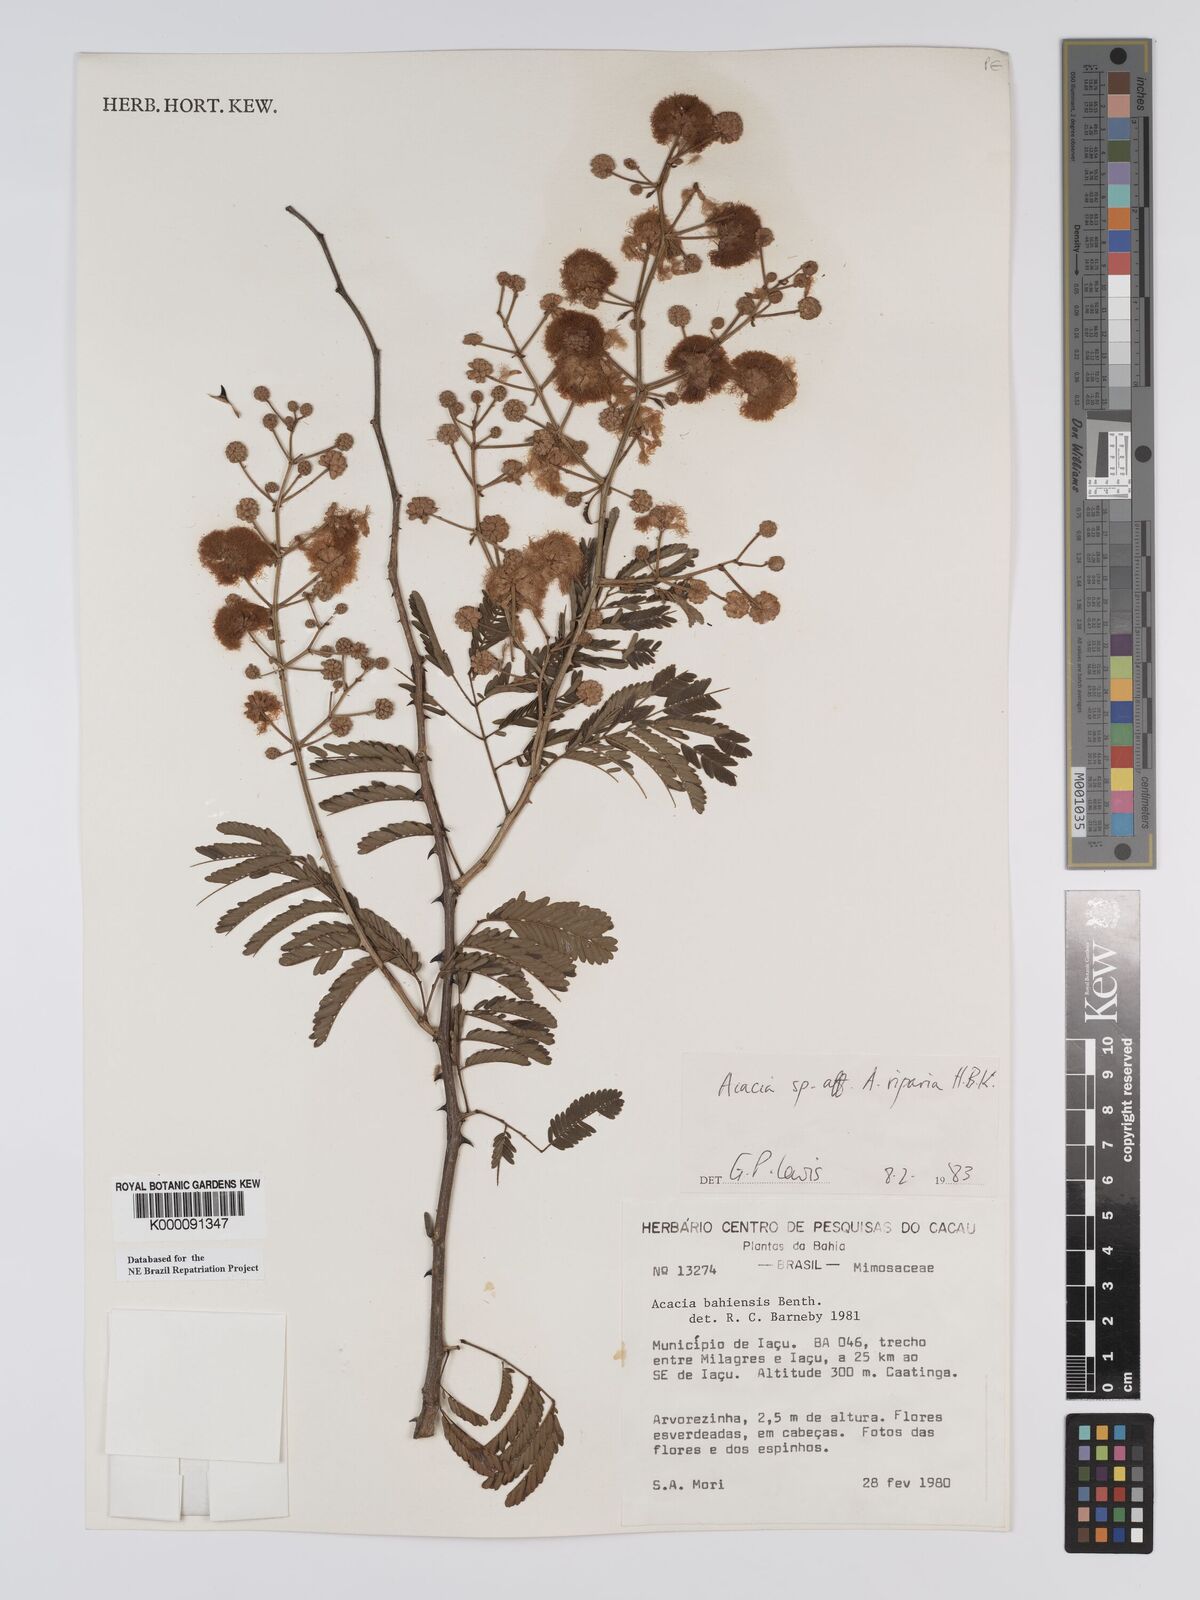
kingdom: Plantae
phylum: Tracheophyta
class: Magnoliopsida
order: Fabales
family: Fabaceae
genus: Senegalia
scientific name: Senegalia riparia
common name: Catch-and-keep
